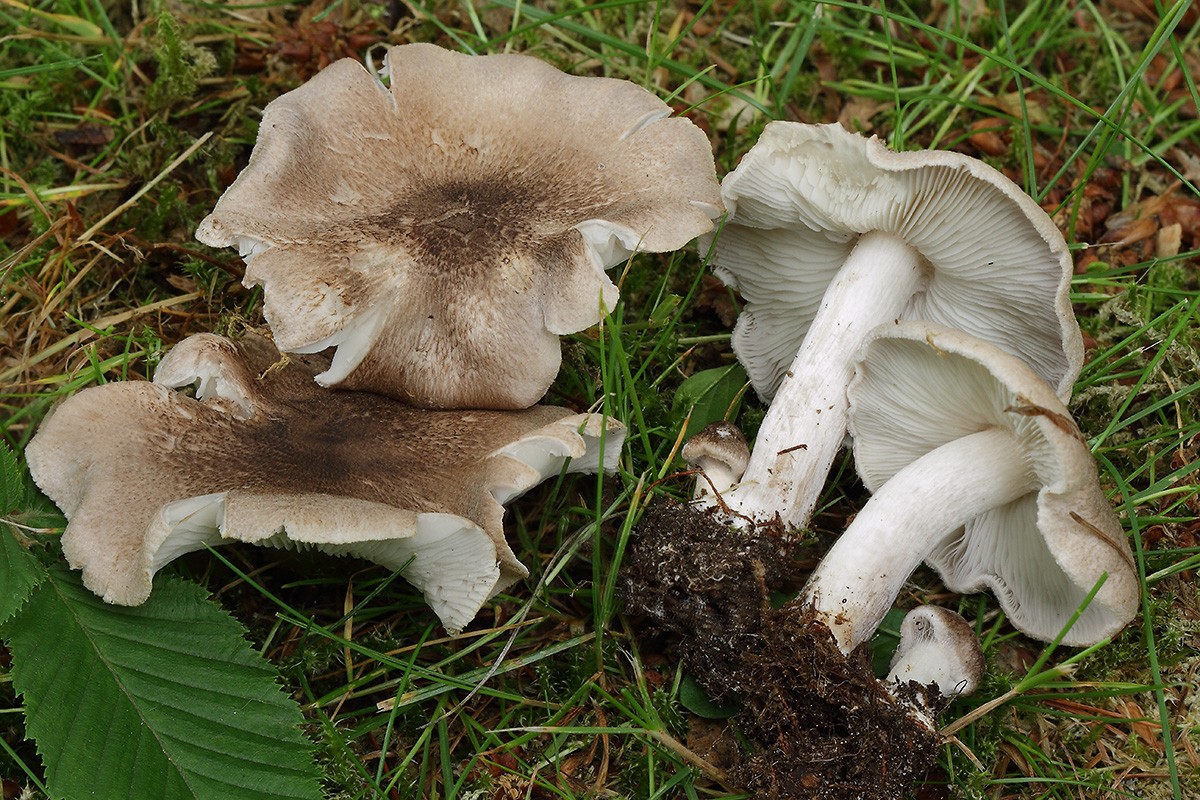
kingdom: Fungi
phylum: Basidiomycota
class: Agaricomycetes
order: Agaricales
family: Tricholomataceae
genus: Tricholoma
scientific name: Tricholoma scalpturatum
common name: gulplettet ridderhat
